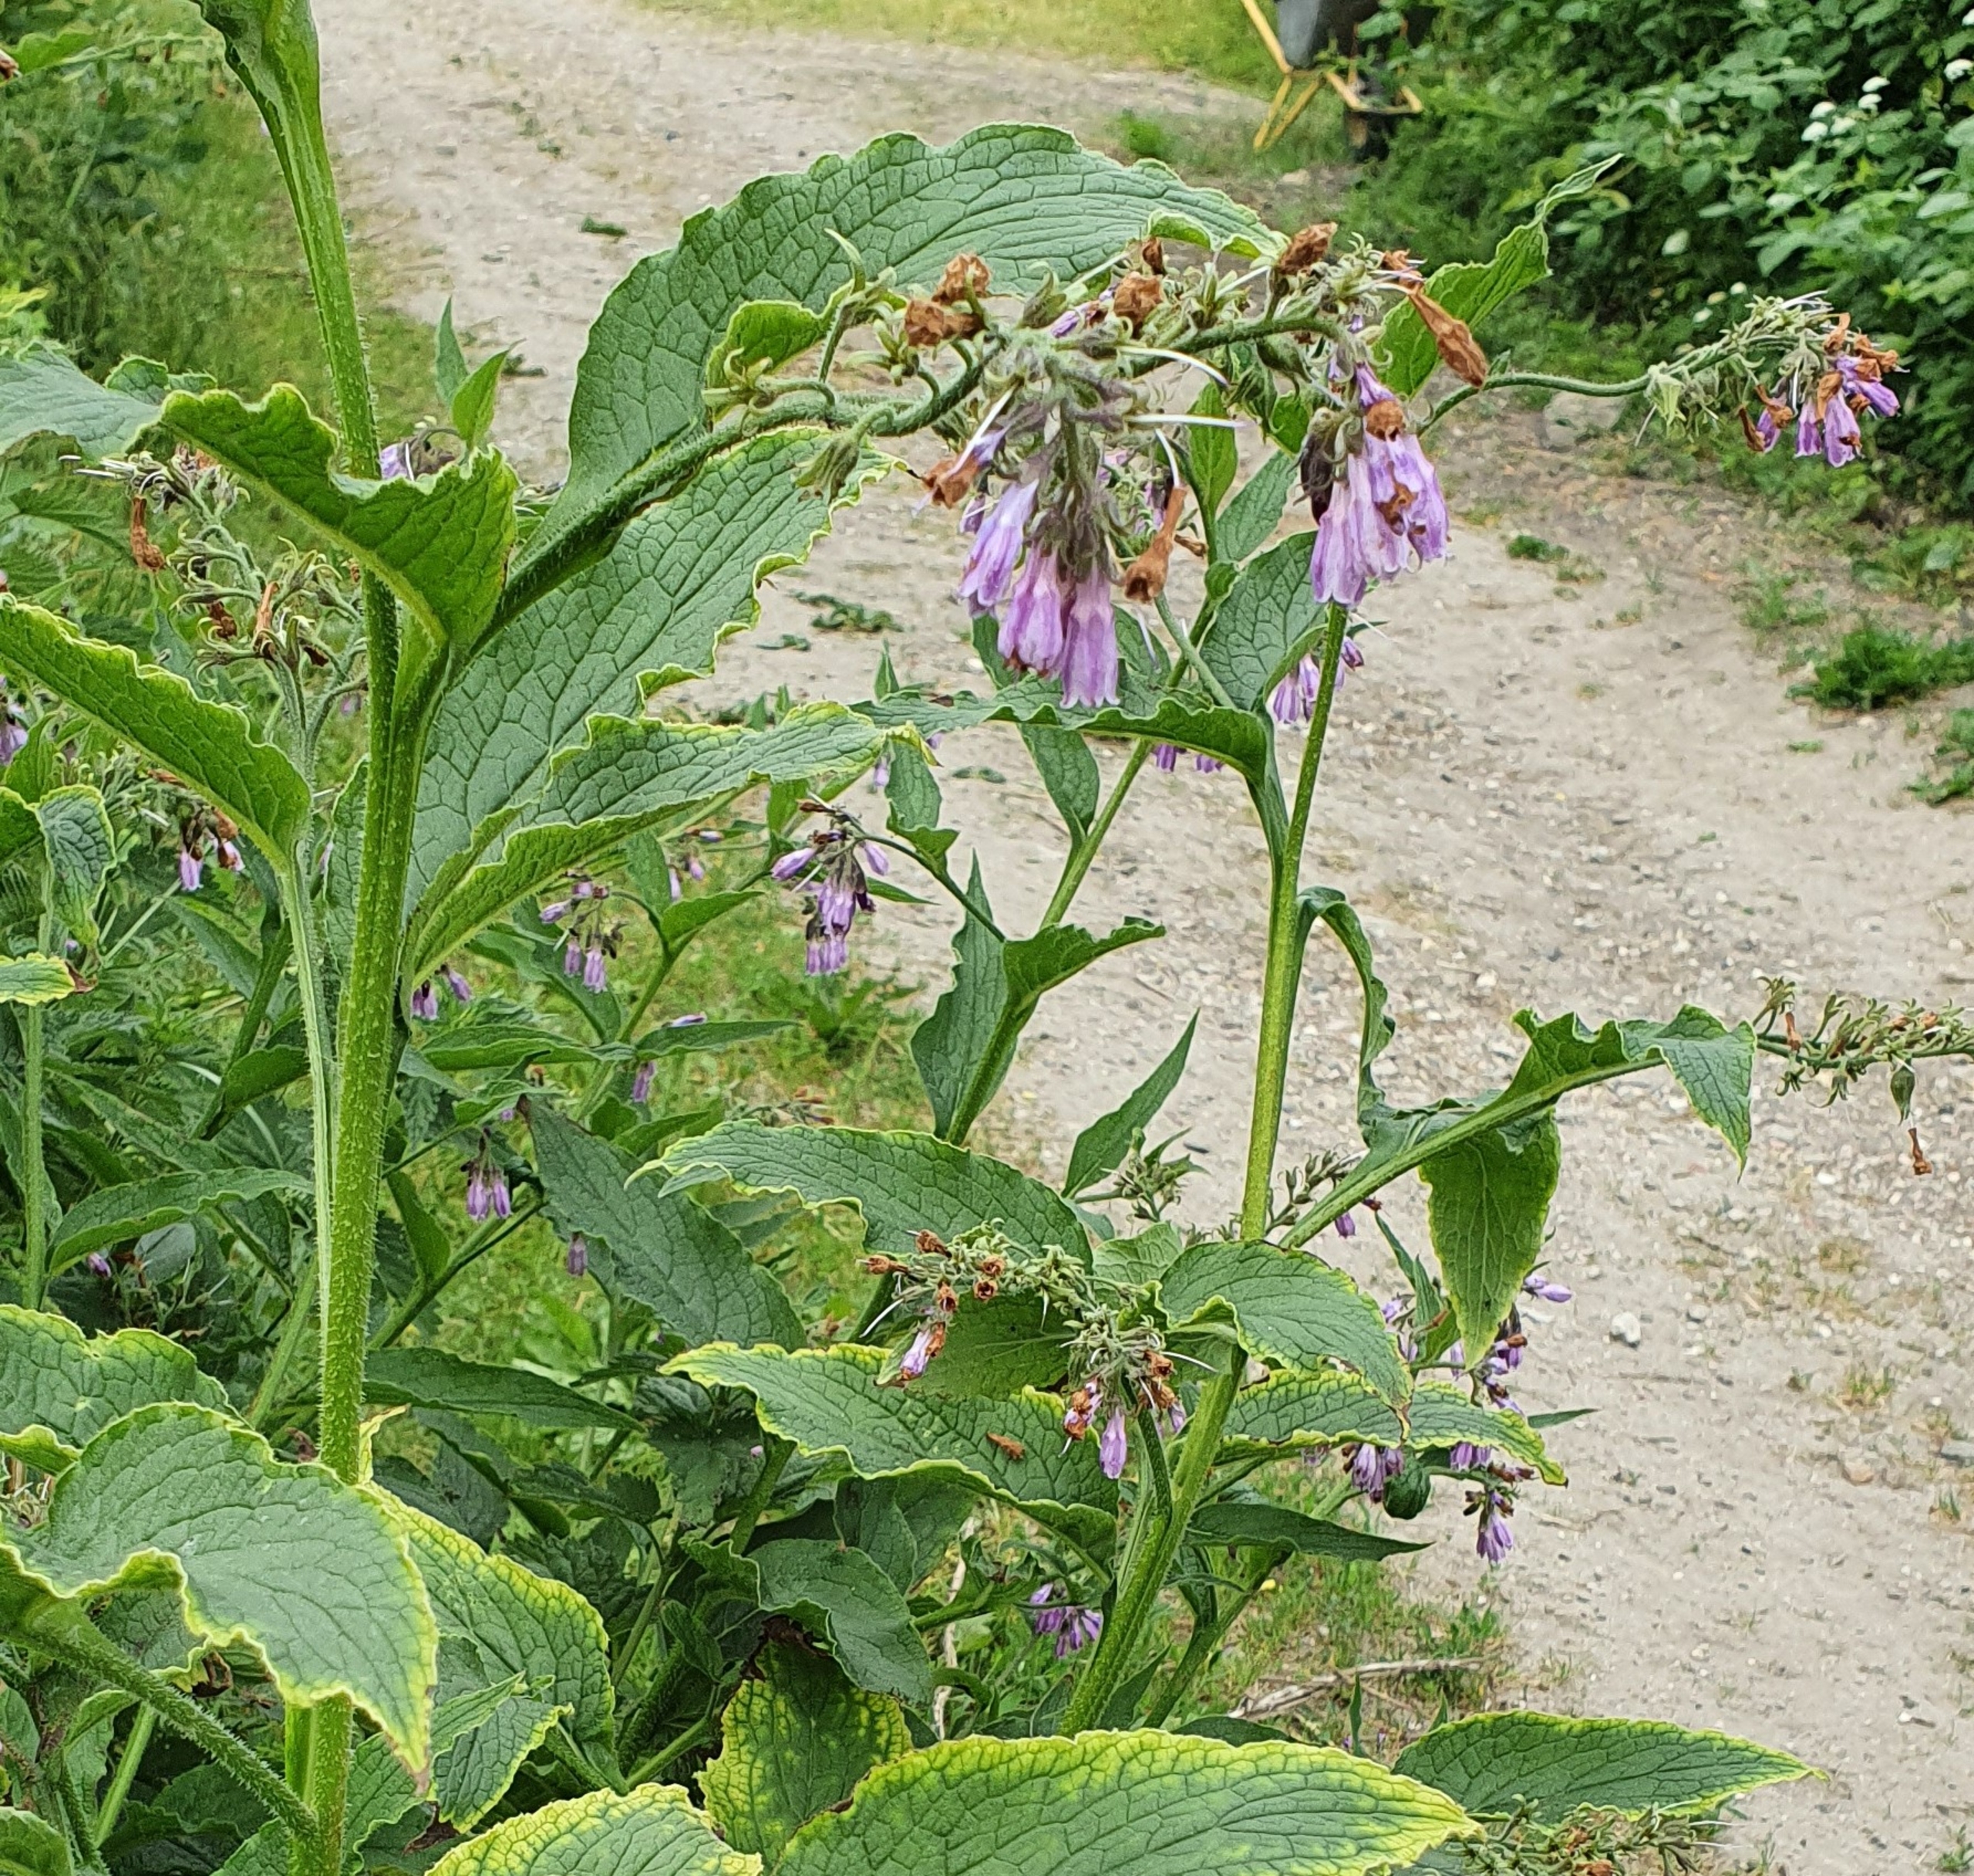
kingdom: Plantae
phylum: Tracheophyta
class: Magnoliopsida
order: Boraginales
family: Boraginaceae
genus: Symphytum
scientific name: Symphytum uplandicum
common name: Foder-kulsukker
